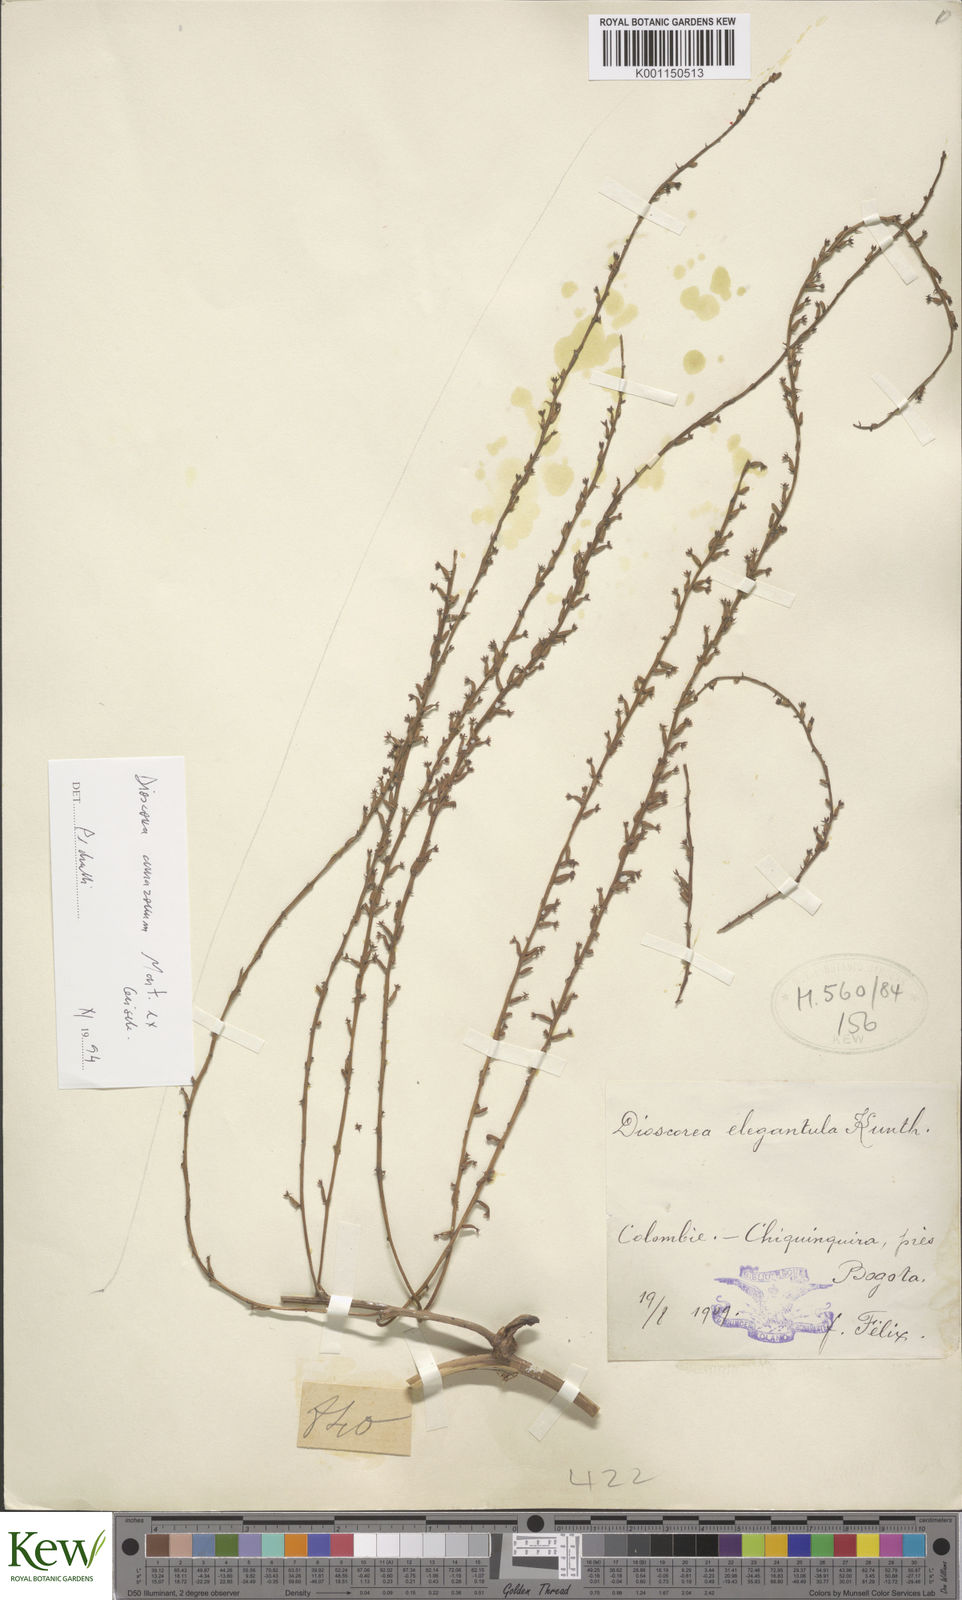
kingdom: Plantae
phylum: Tracheophyta
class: Liliopsida
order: Dioscoreales
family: Dioscoreaceae
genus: Dioscorea
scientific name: Dioscorea amazonum
